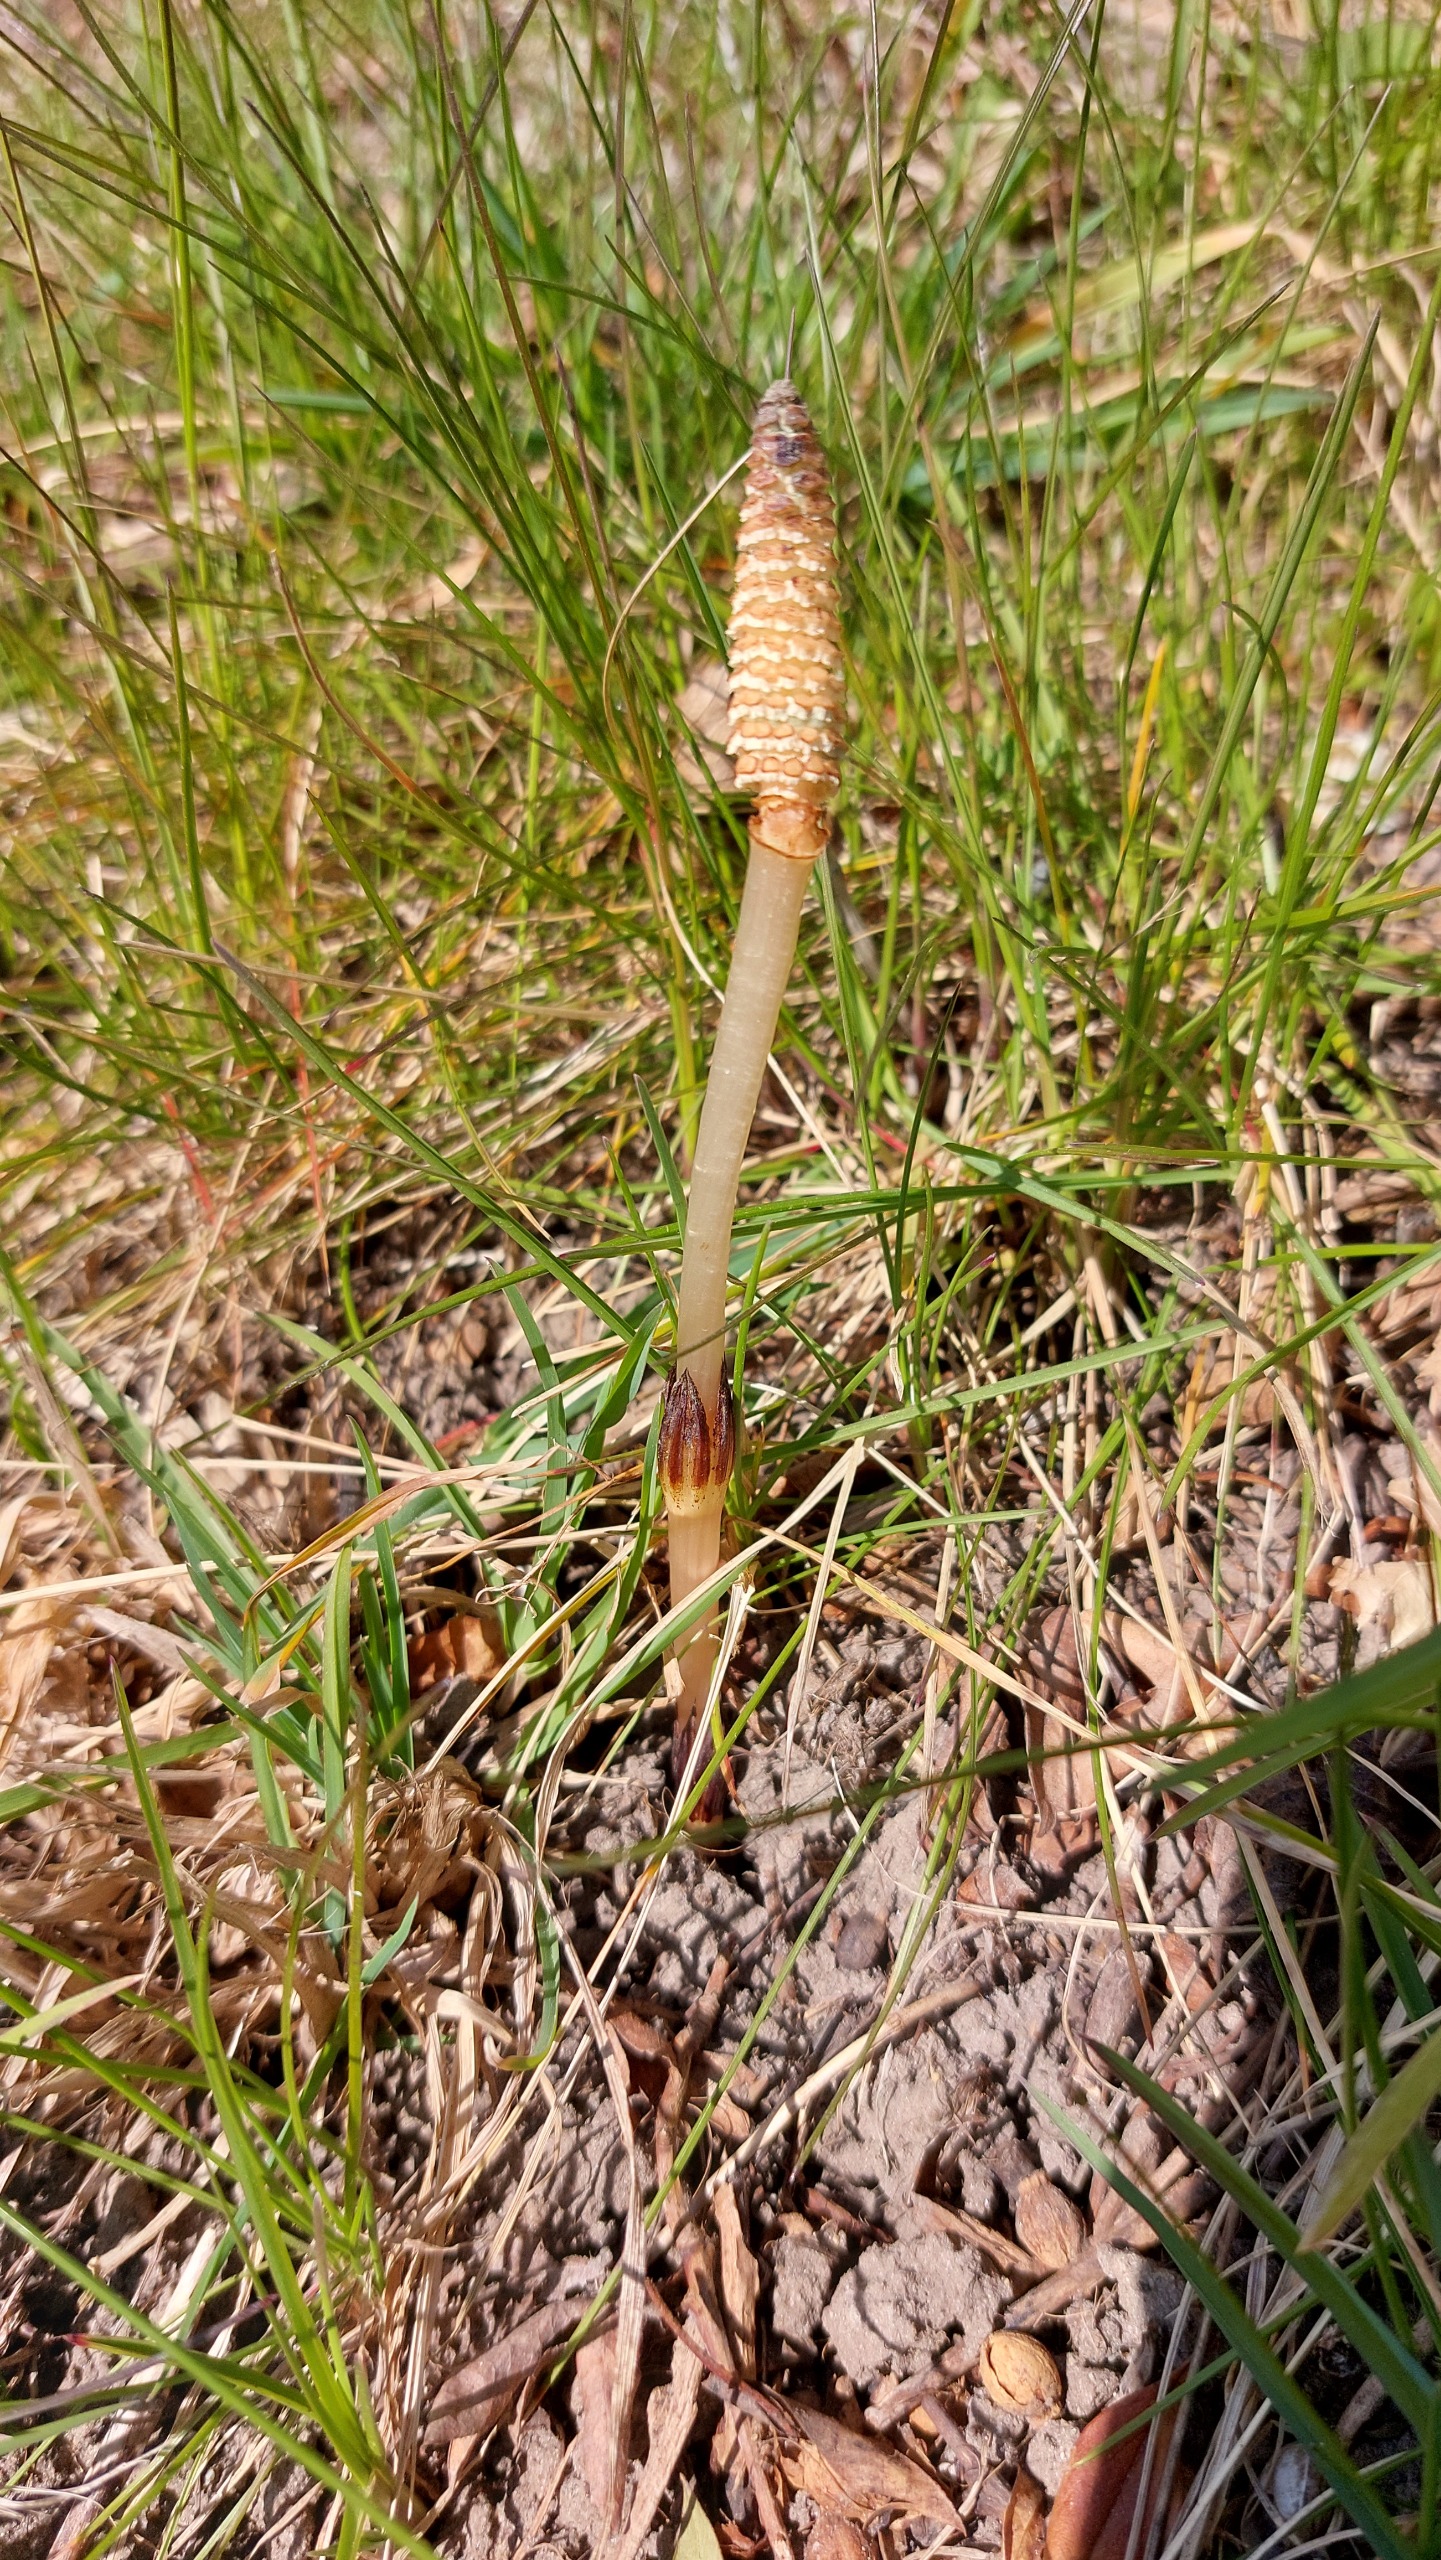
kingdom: Plantae
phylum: Tracheophyta
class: Polypodiopsida
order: Equisetales
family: Equisetaceae
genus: Equisetum
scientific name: Equisetum arvense
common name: Ager-padderok
